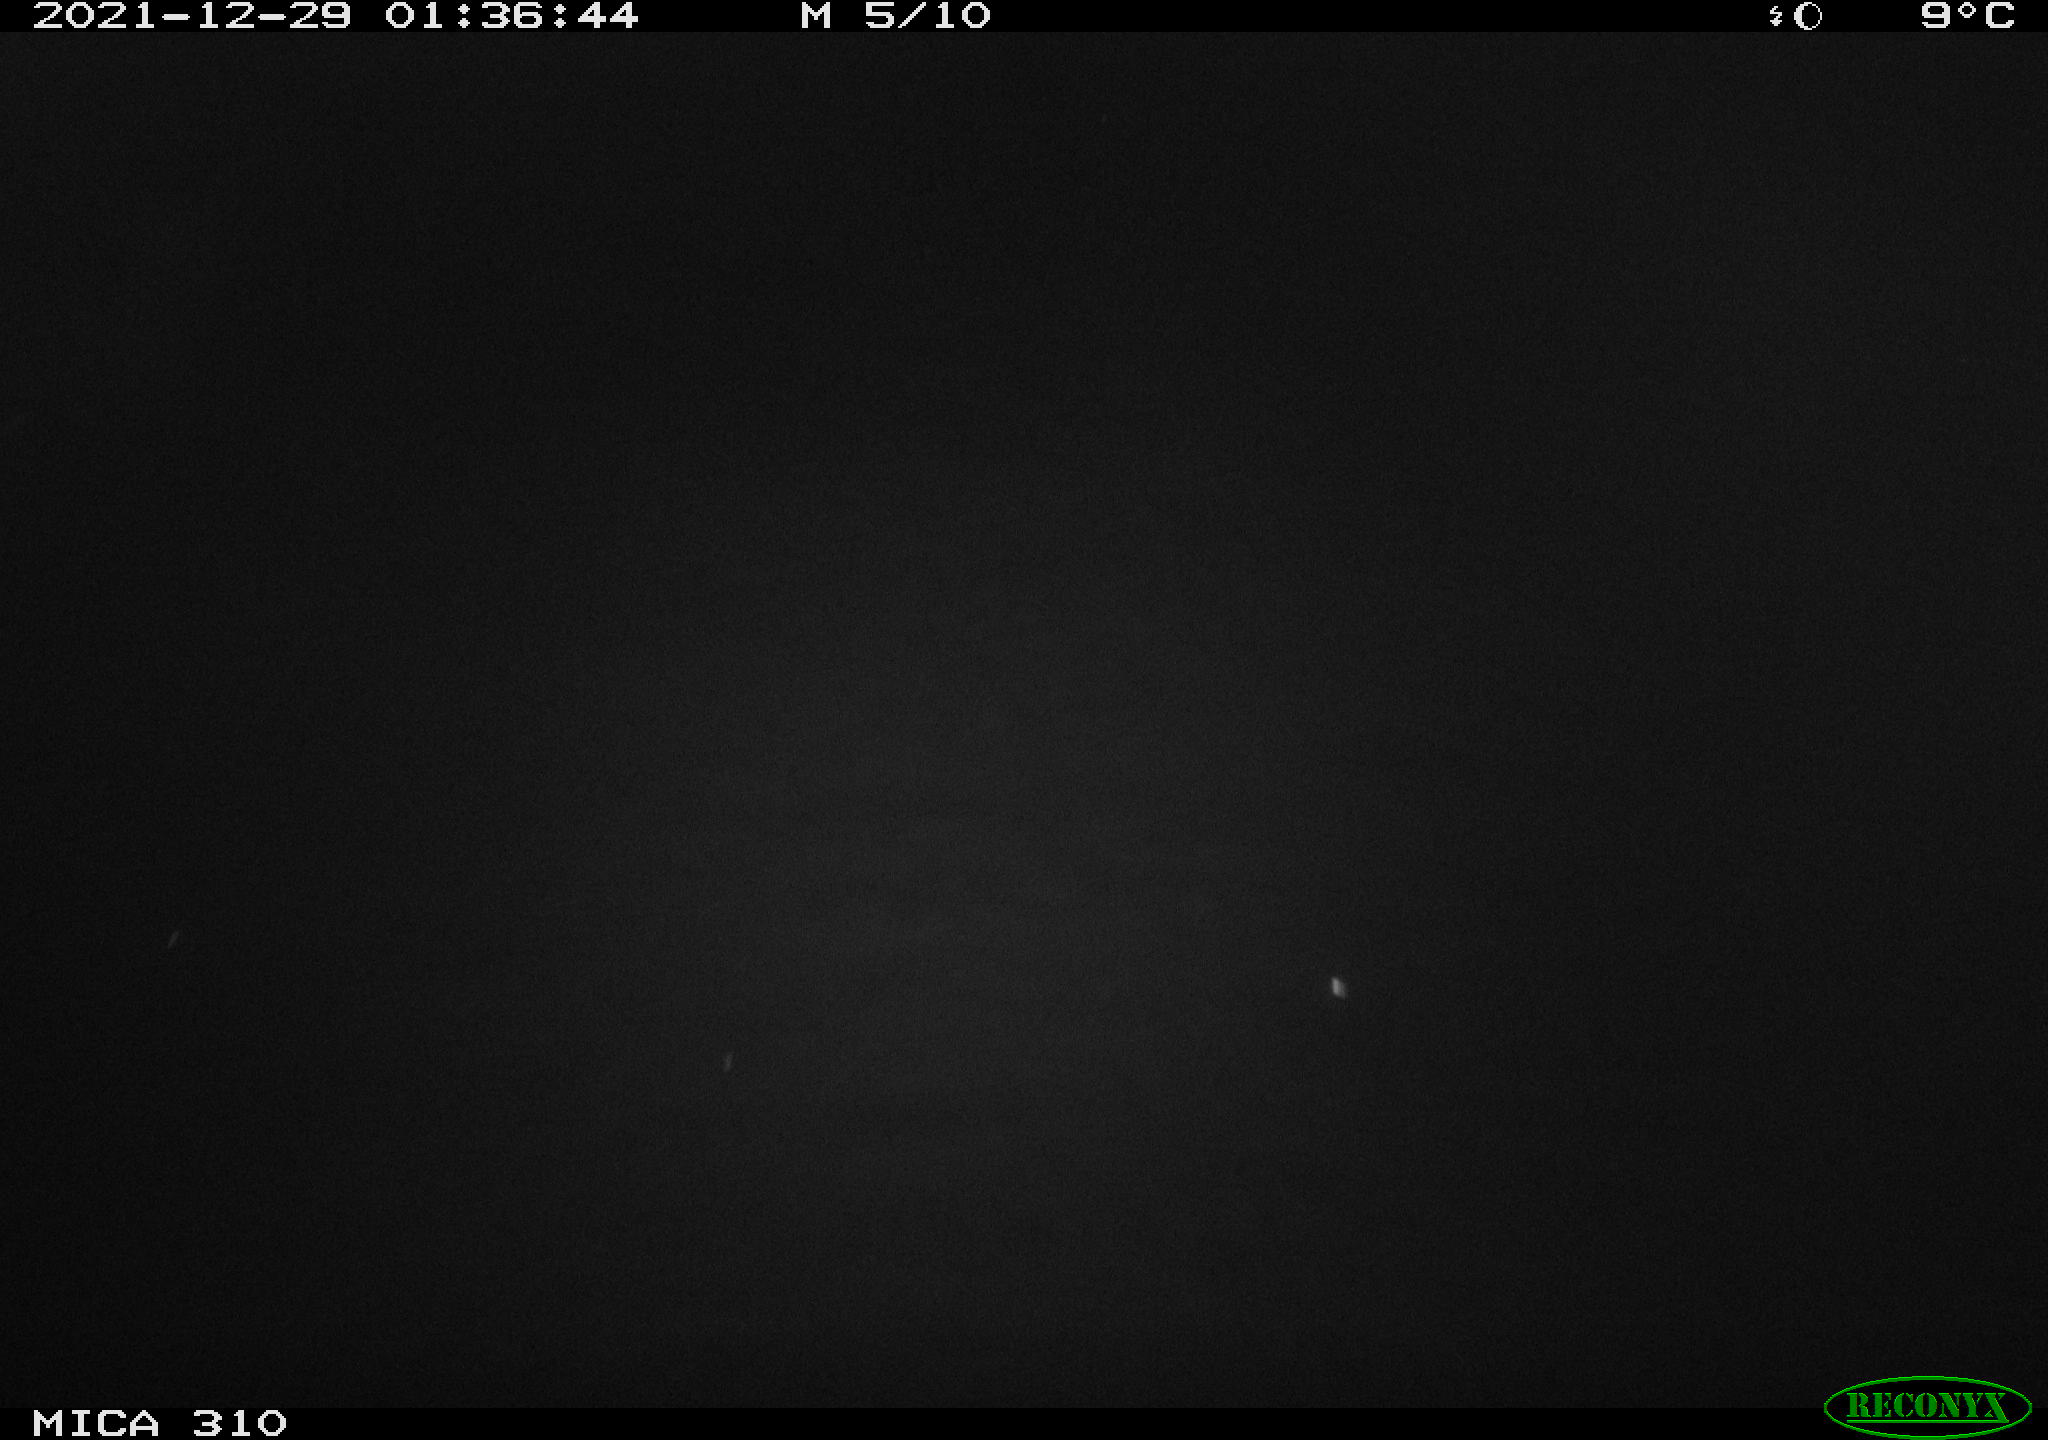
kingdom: Animalia
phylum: Chordata
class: Aves
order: Gruiformes
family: Rallidae
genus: Fulica
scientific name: Fulica atra
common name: Eurasian coot
